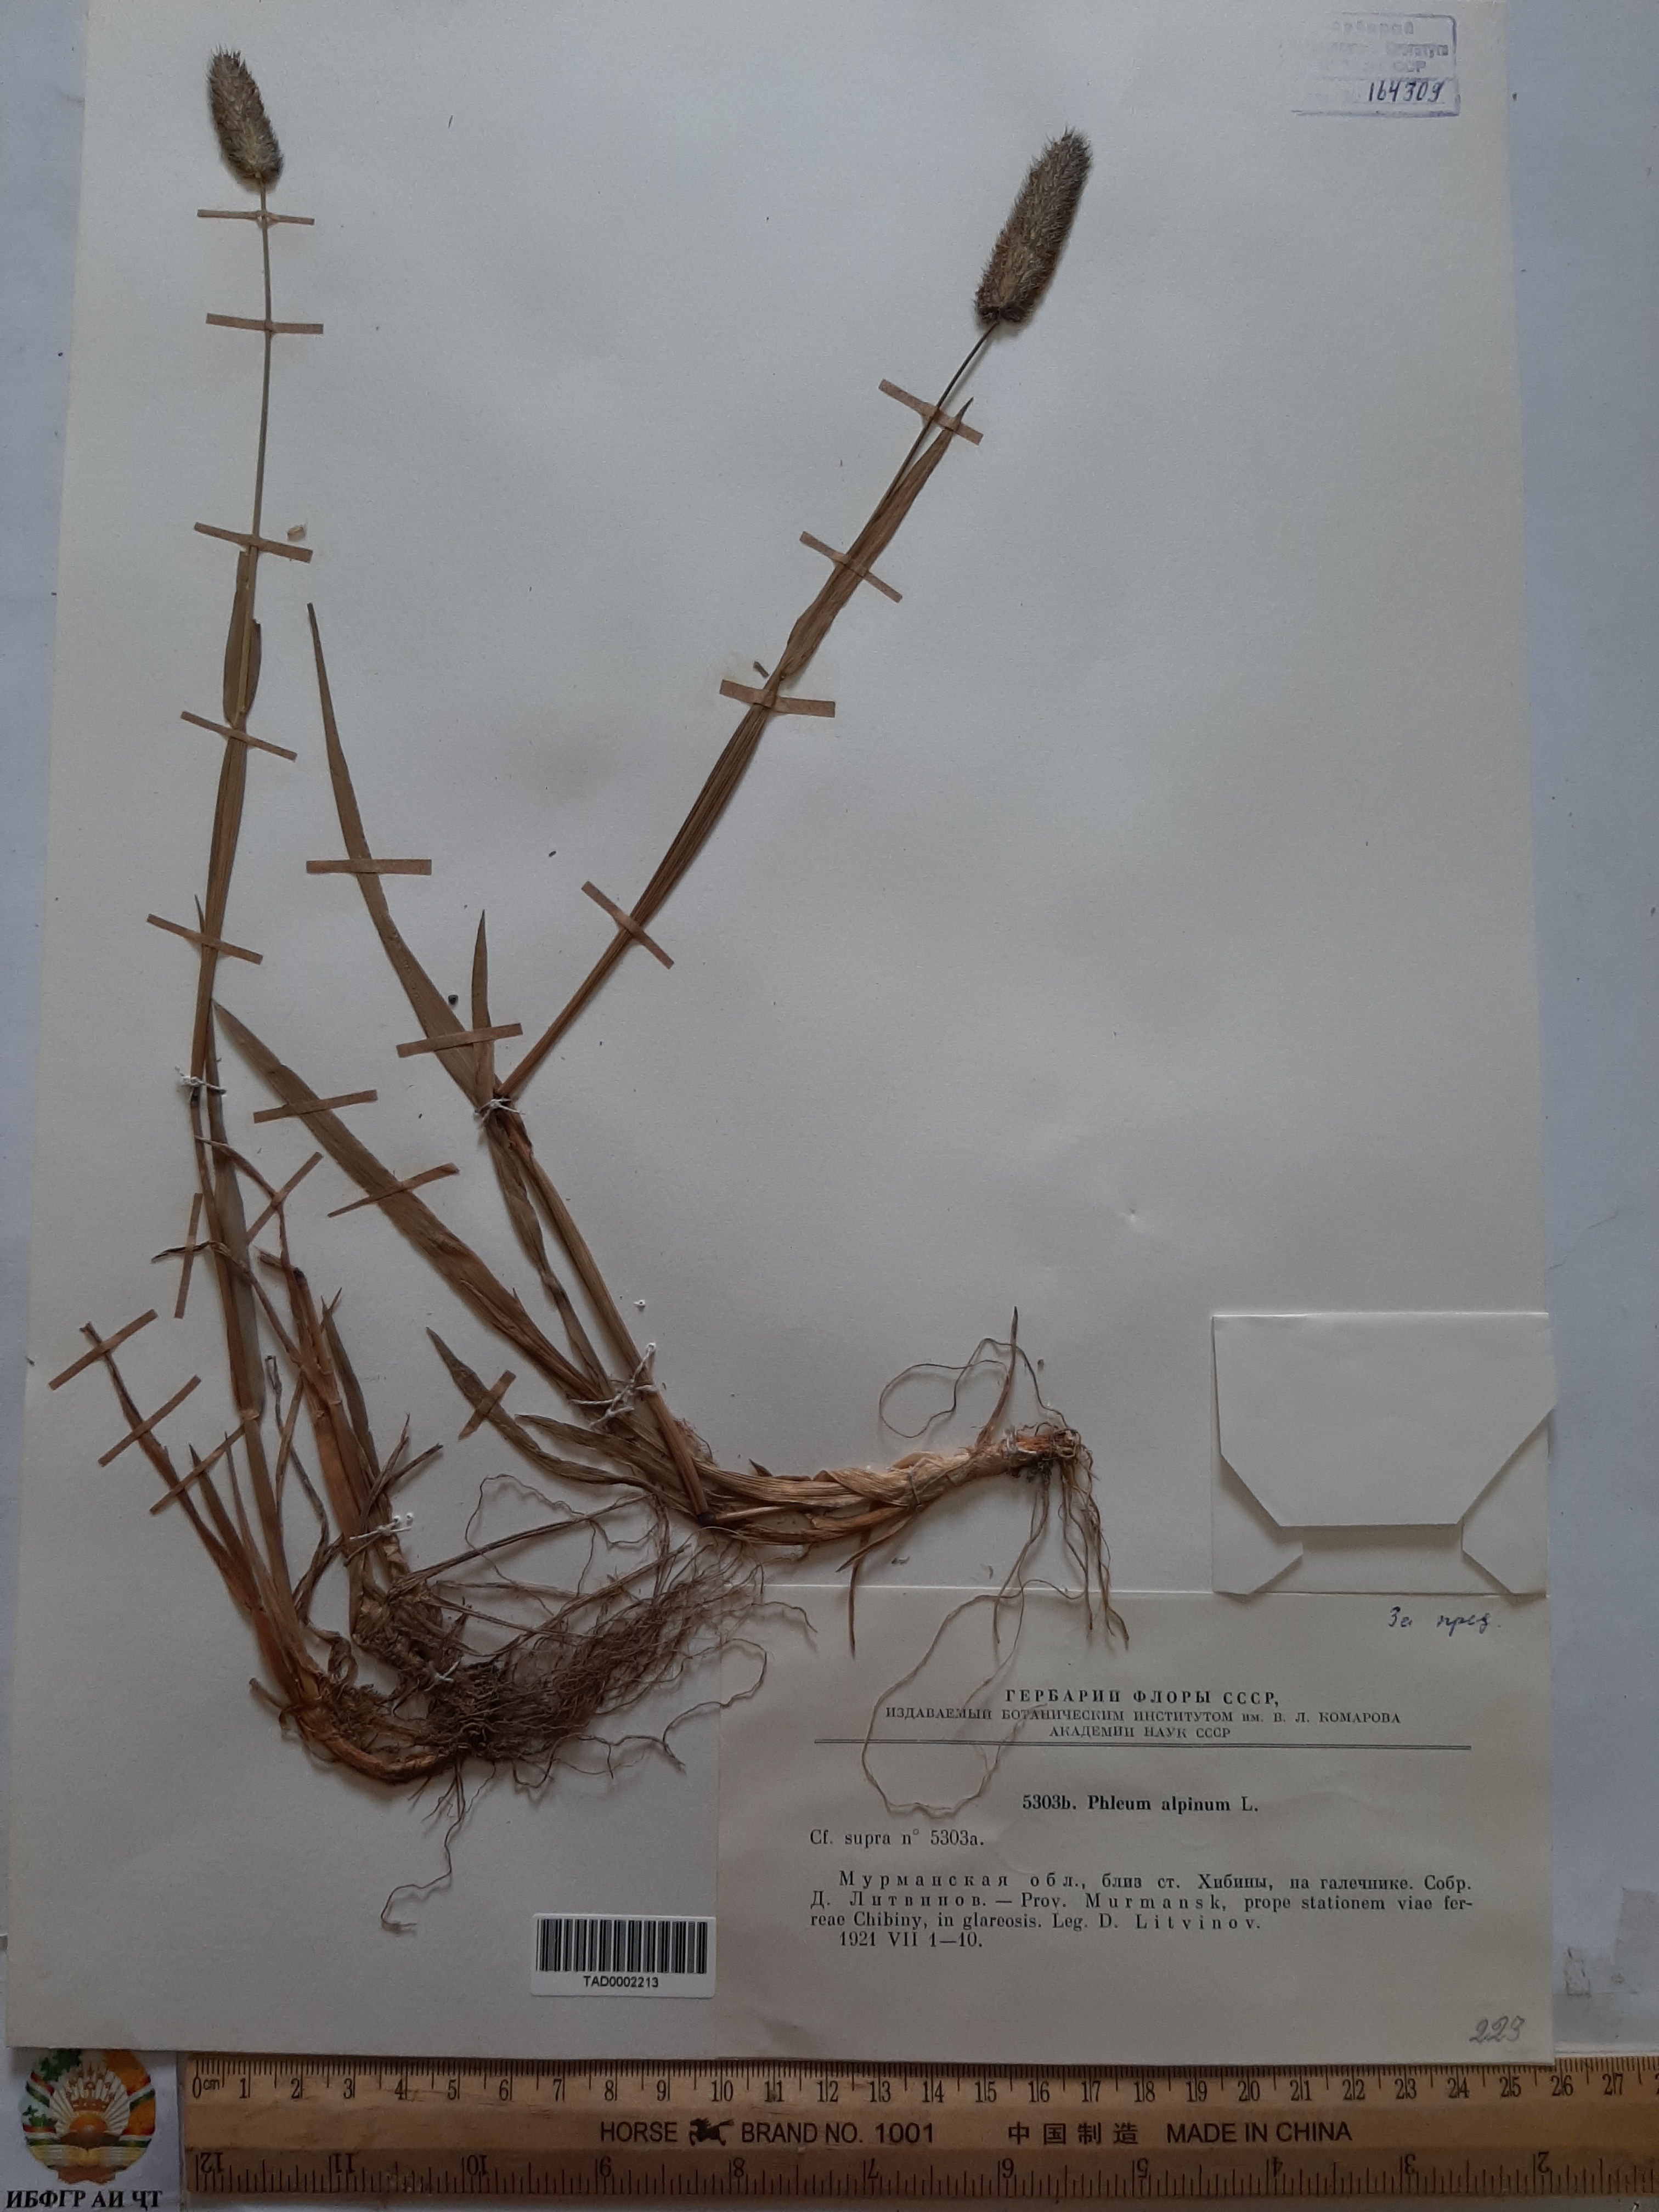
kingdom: Plantae
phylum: Tracheophyta
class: Liliopsida
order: Poales
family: Poaceae
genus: Phleum
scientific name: Phleum alpinum
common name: Alpine cat's-tail
